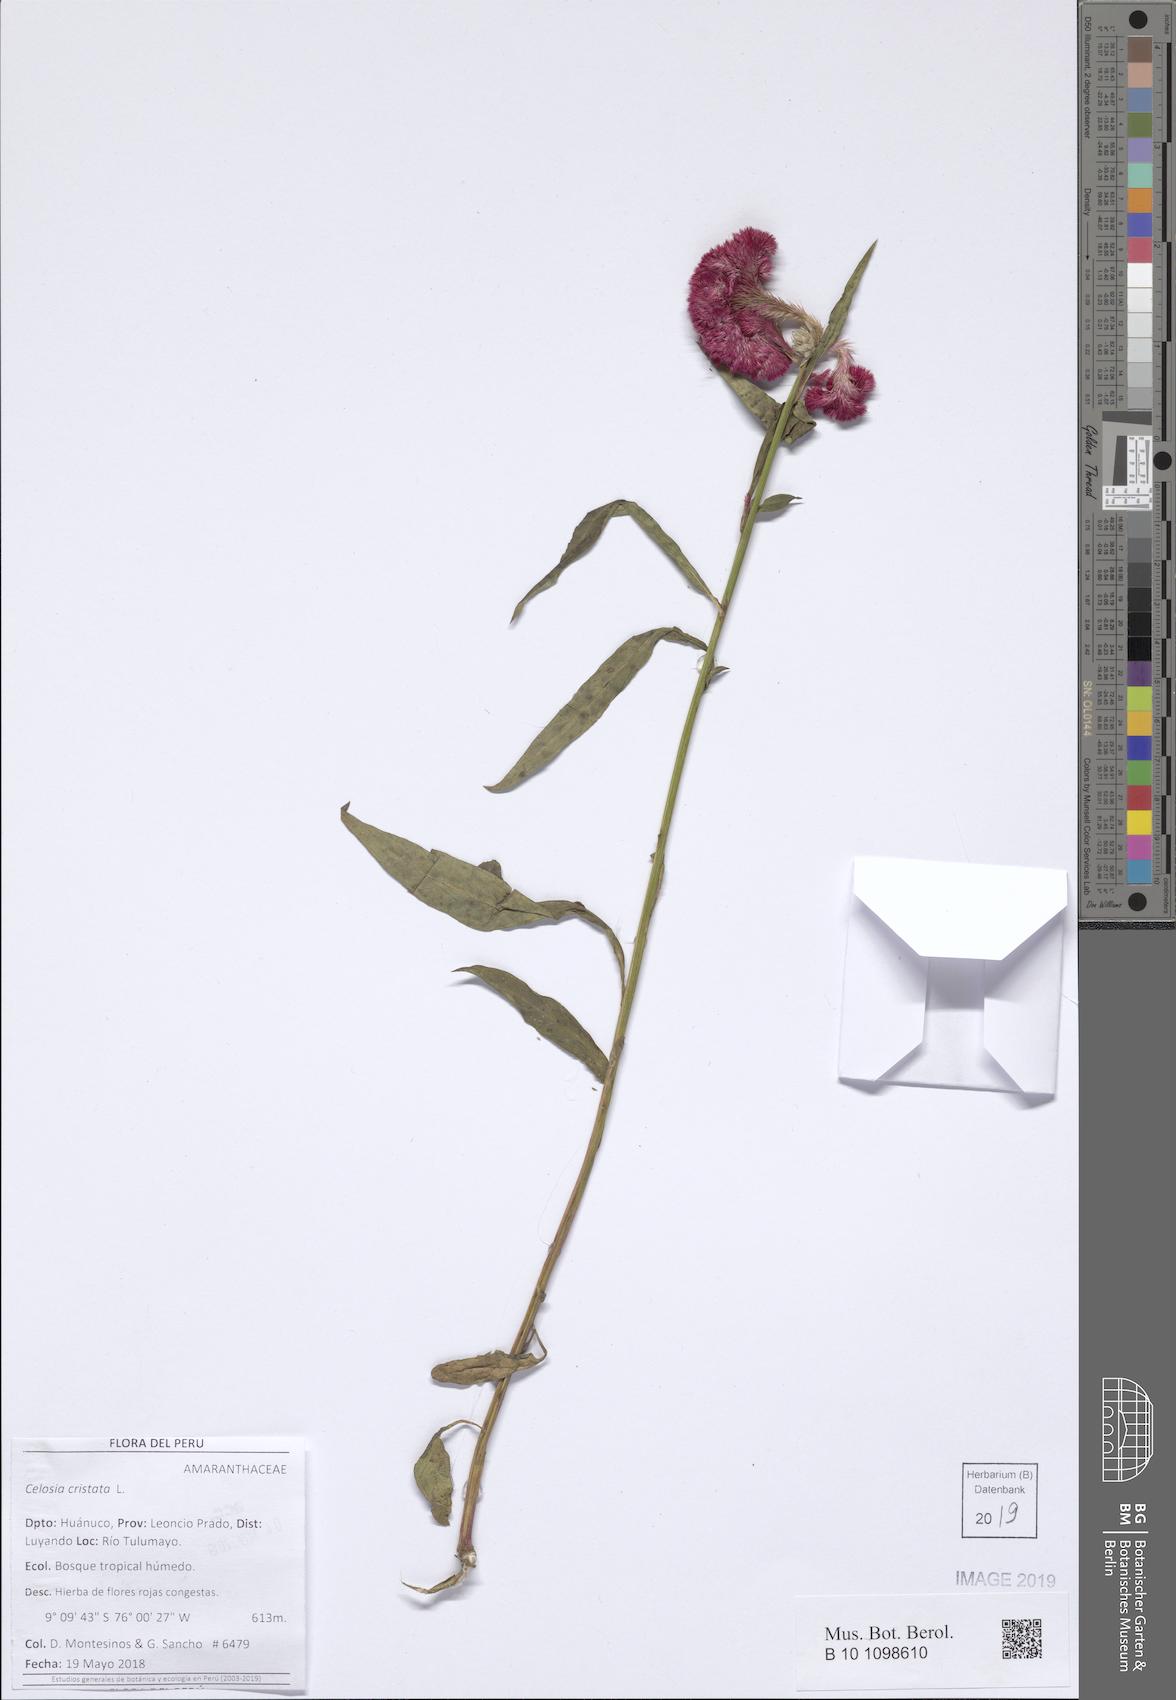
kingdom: Plantae
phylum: Tracheophyta
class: Magnoliopsida
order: Caryophyllales
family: Amaranthaceae
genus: Celosia
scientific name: Celosia argentea
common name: Feather cockscomb
